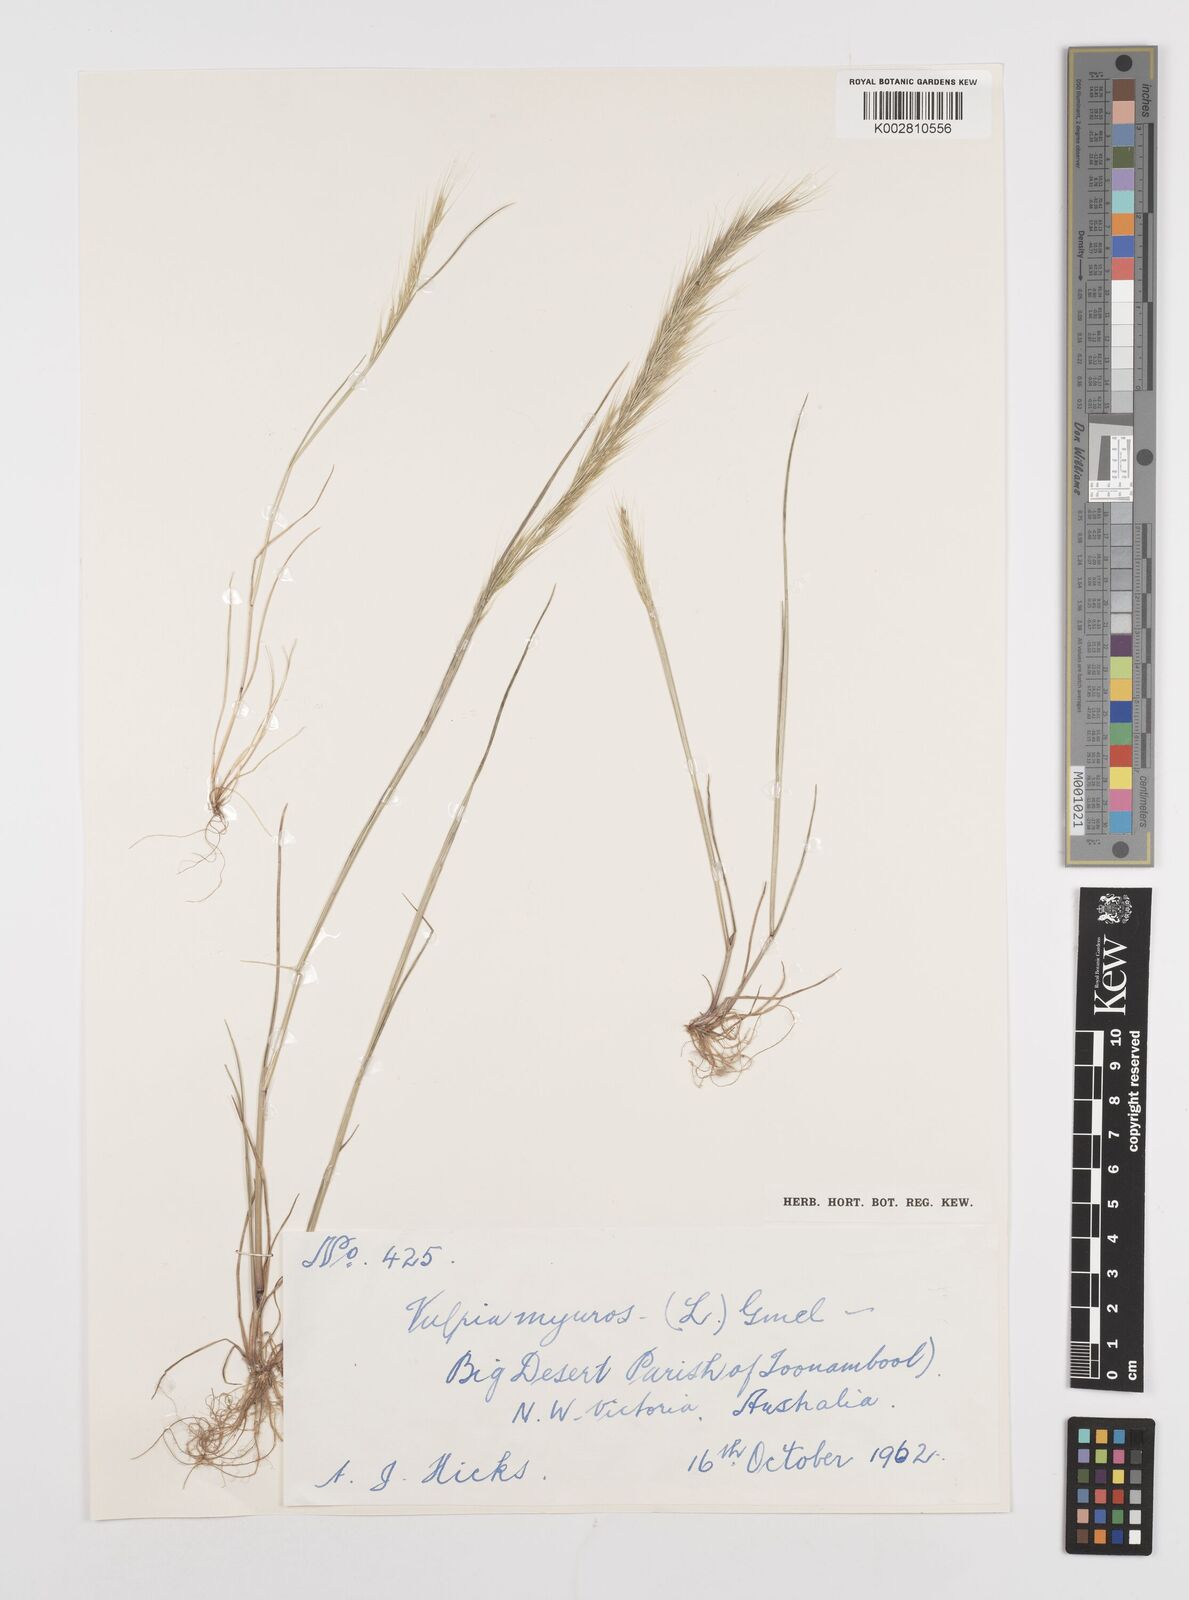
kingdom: Plantae
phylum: Tracheophyta
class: Liliopsida
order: Poales
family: Poaceae
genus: Festuca
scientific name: Festuca myuros
